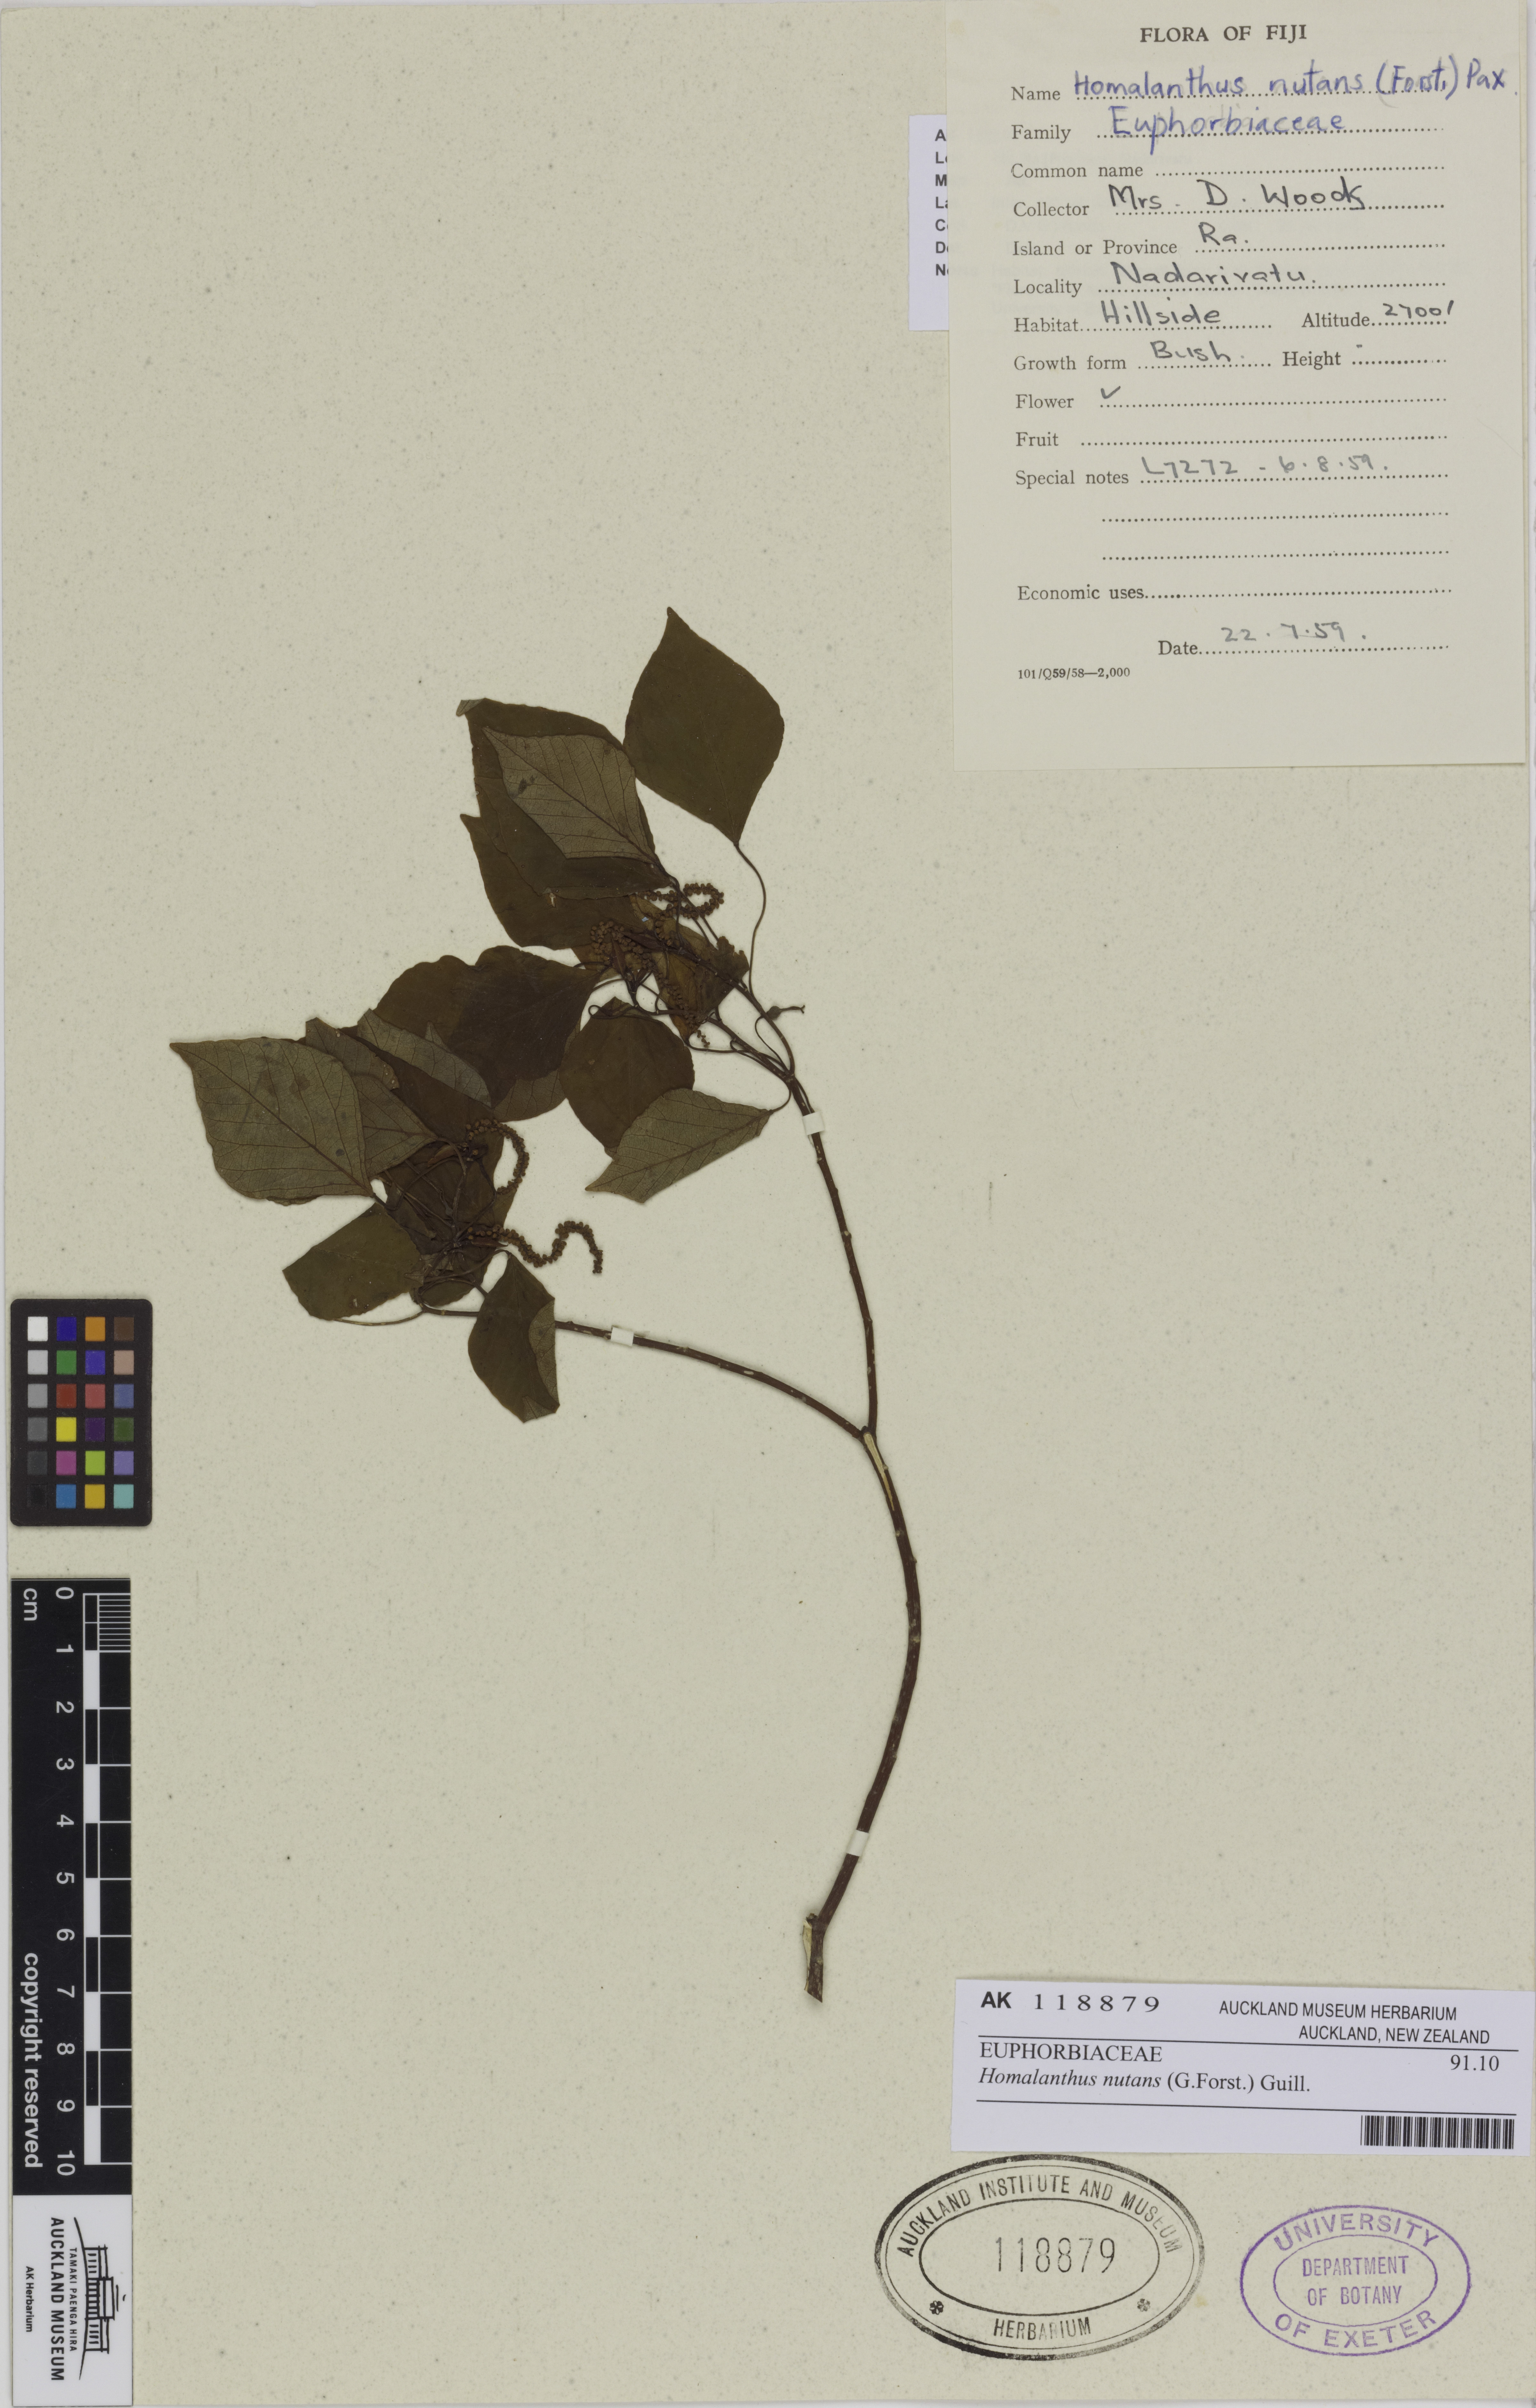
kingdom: Plantae
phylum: Tracheophyta
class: Magnoliopsida
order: Malpighiales
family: Euphorbiaceae
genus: Homalanthus
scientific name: Homalanthus nutans
